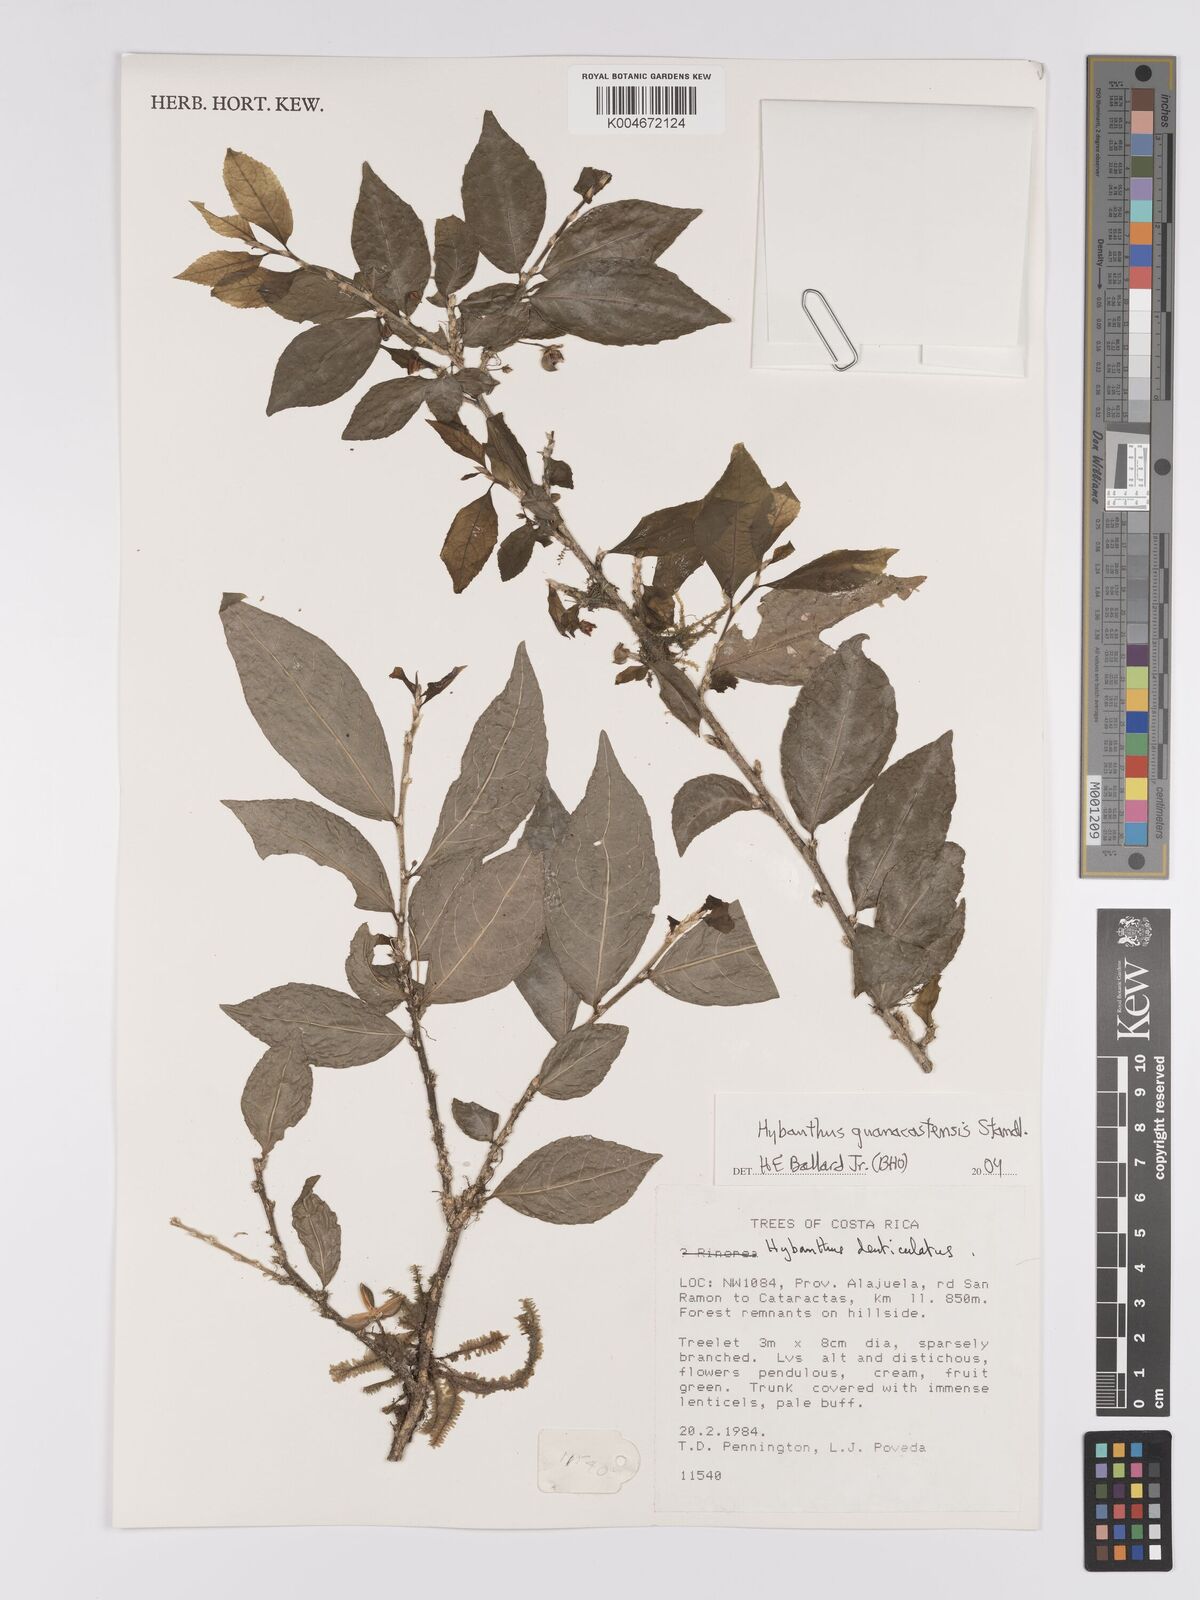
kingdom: Plantae
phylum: Tracheophyta
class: Magnoliopsida
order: Malpighiales
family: Violaceae
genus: Hybanthus
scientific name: Hybanthus guanacastensis
